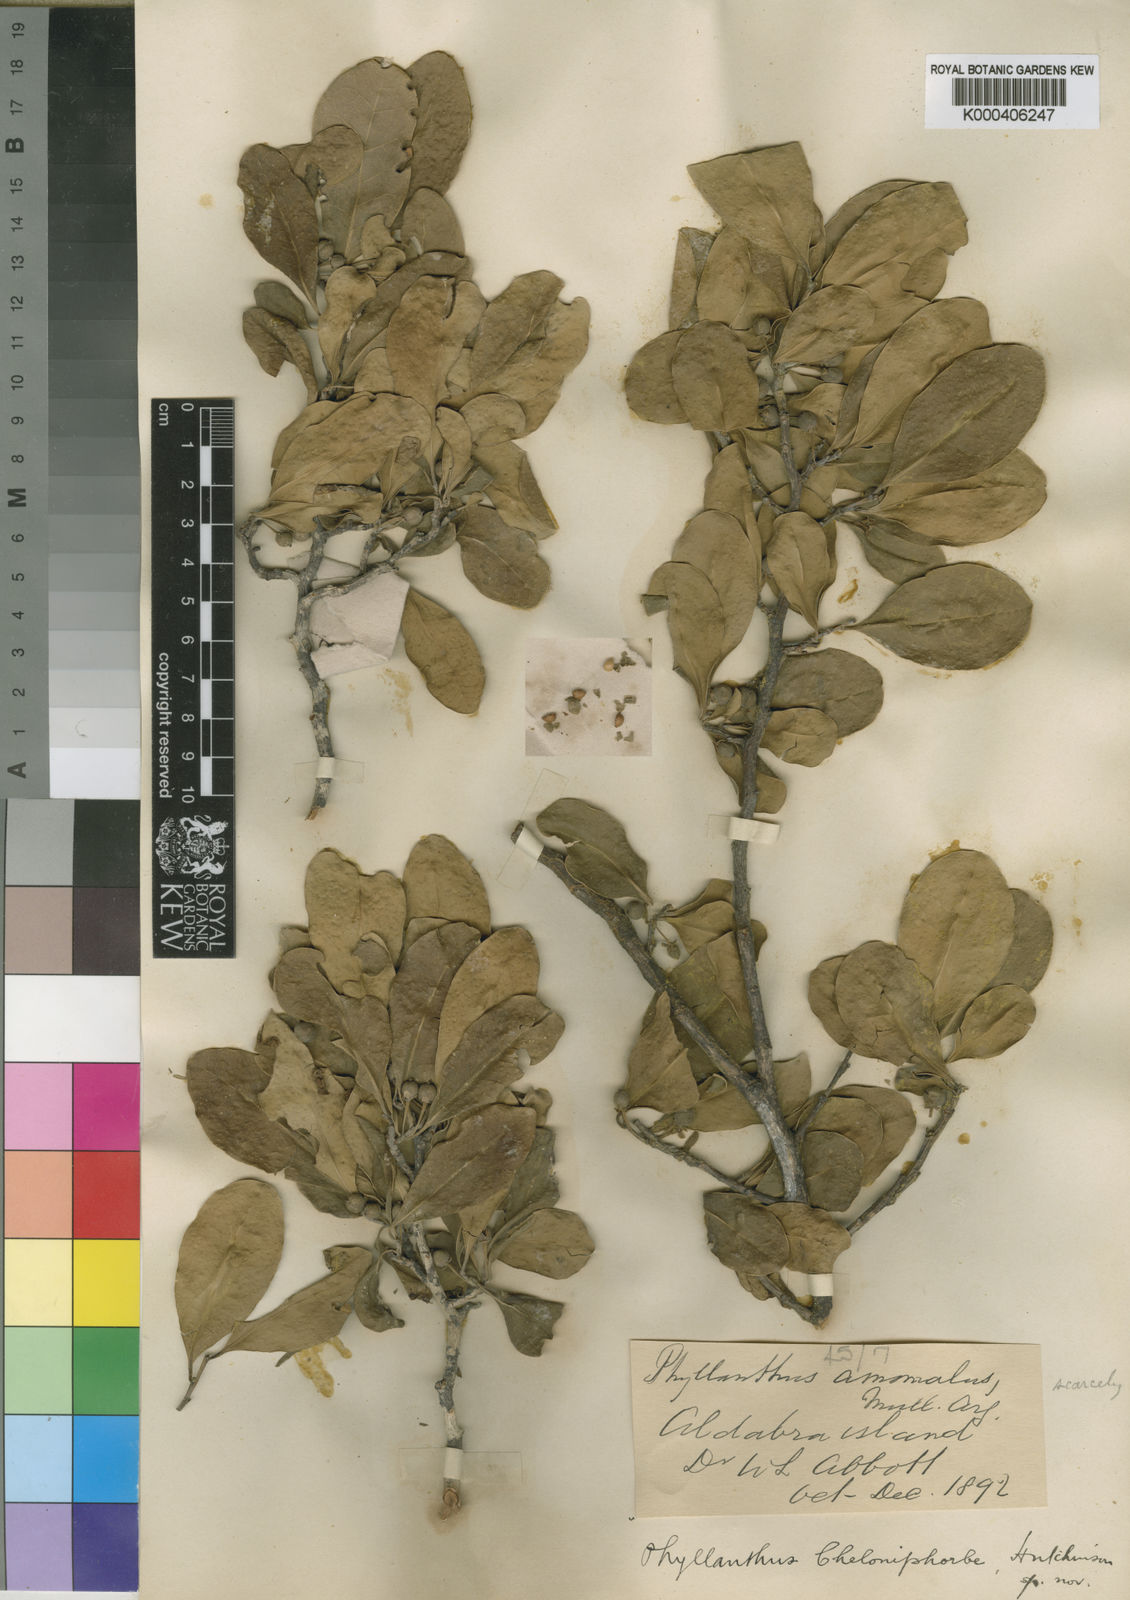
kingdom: Plantae
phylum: Tracheophyta
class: Magnoliopsida
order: Malpighiales
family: Phyllanthaceae
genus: Margaritaria
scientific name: Margaritaria anomala
